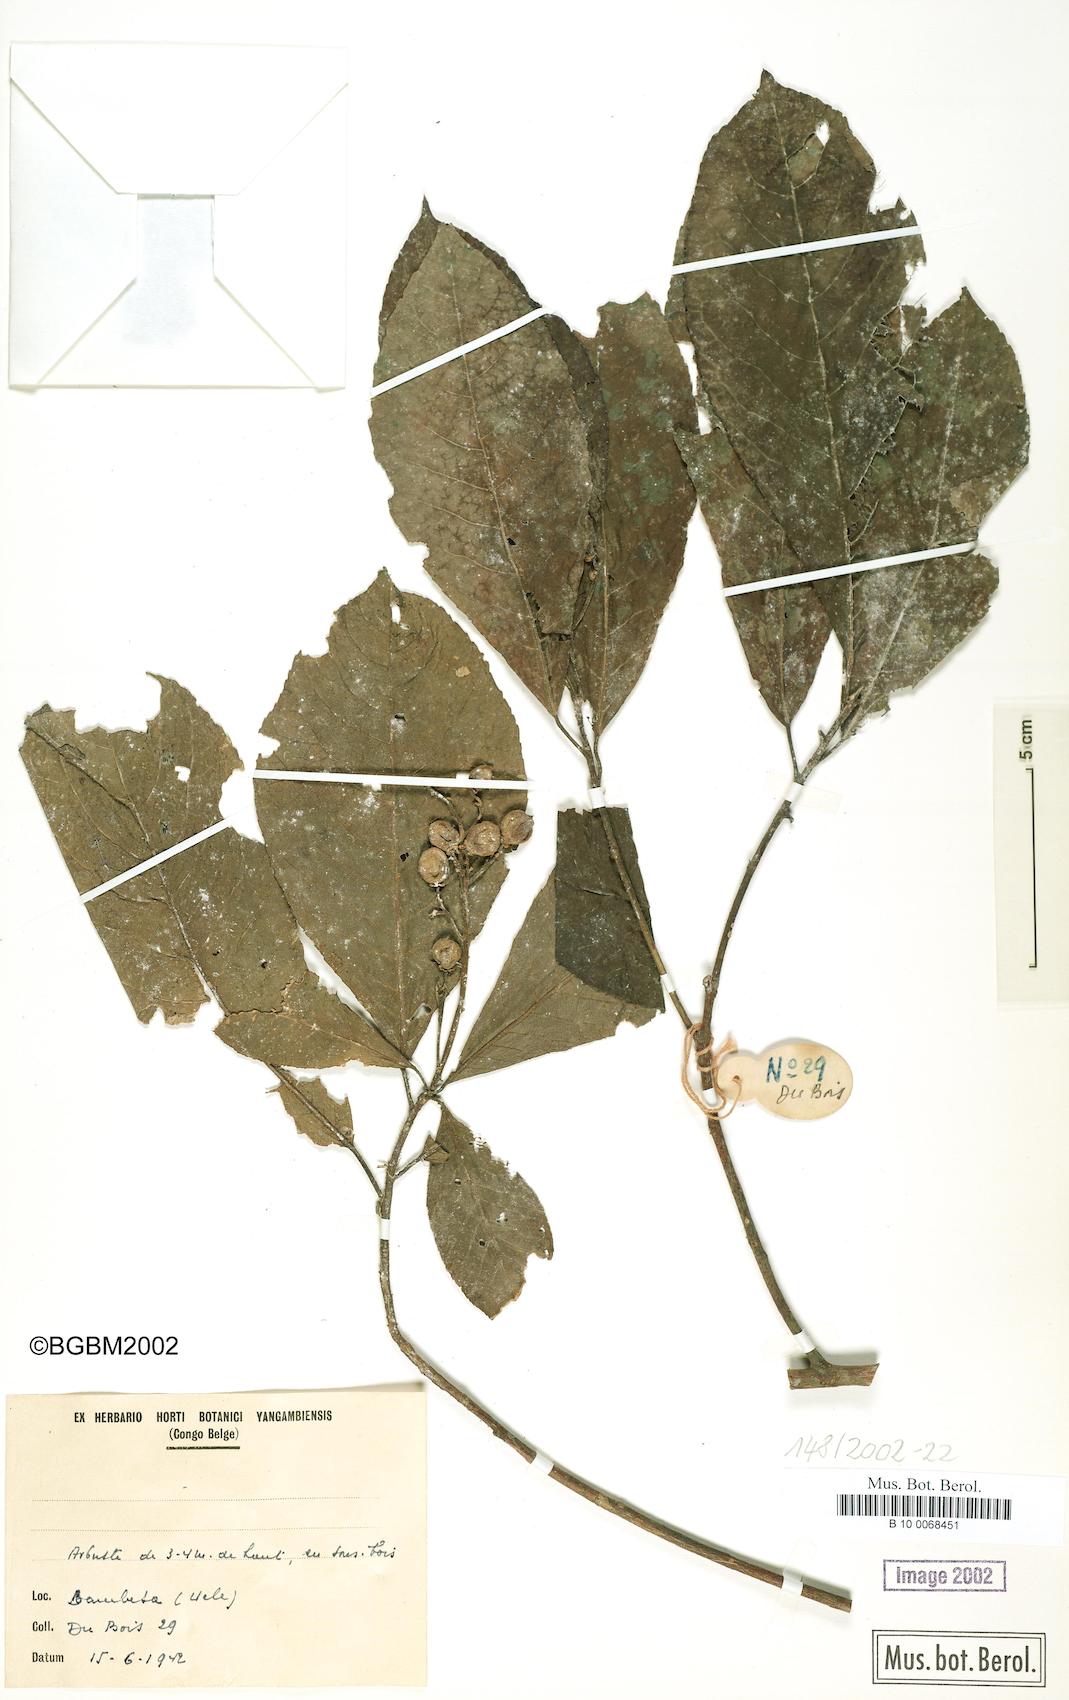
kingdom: Plantae
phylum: Tracheophyta
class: Magnoliopsida
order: Malpighiales
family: Violaceae
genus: Rinorea
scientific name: Rinorea
